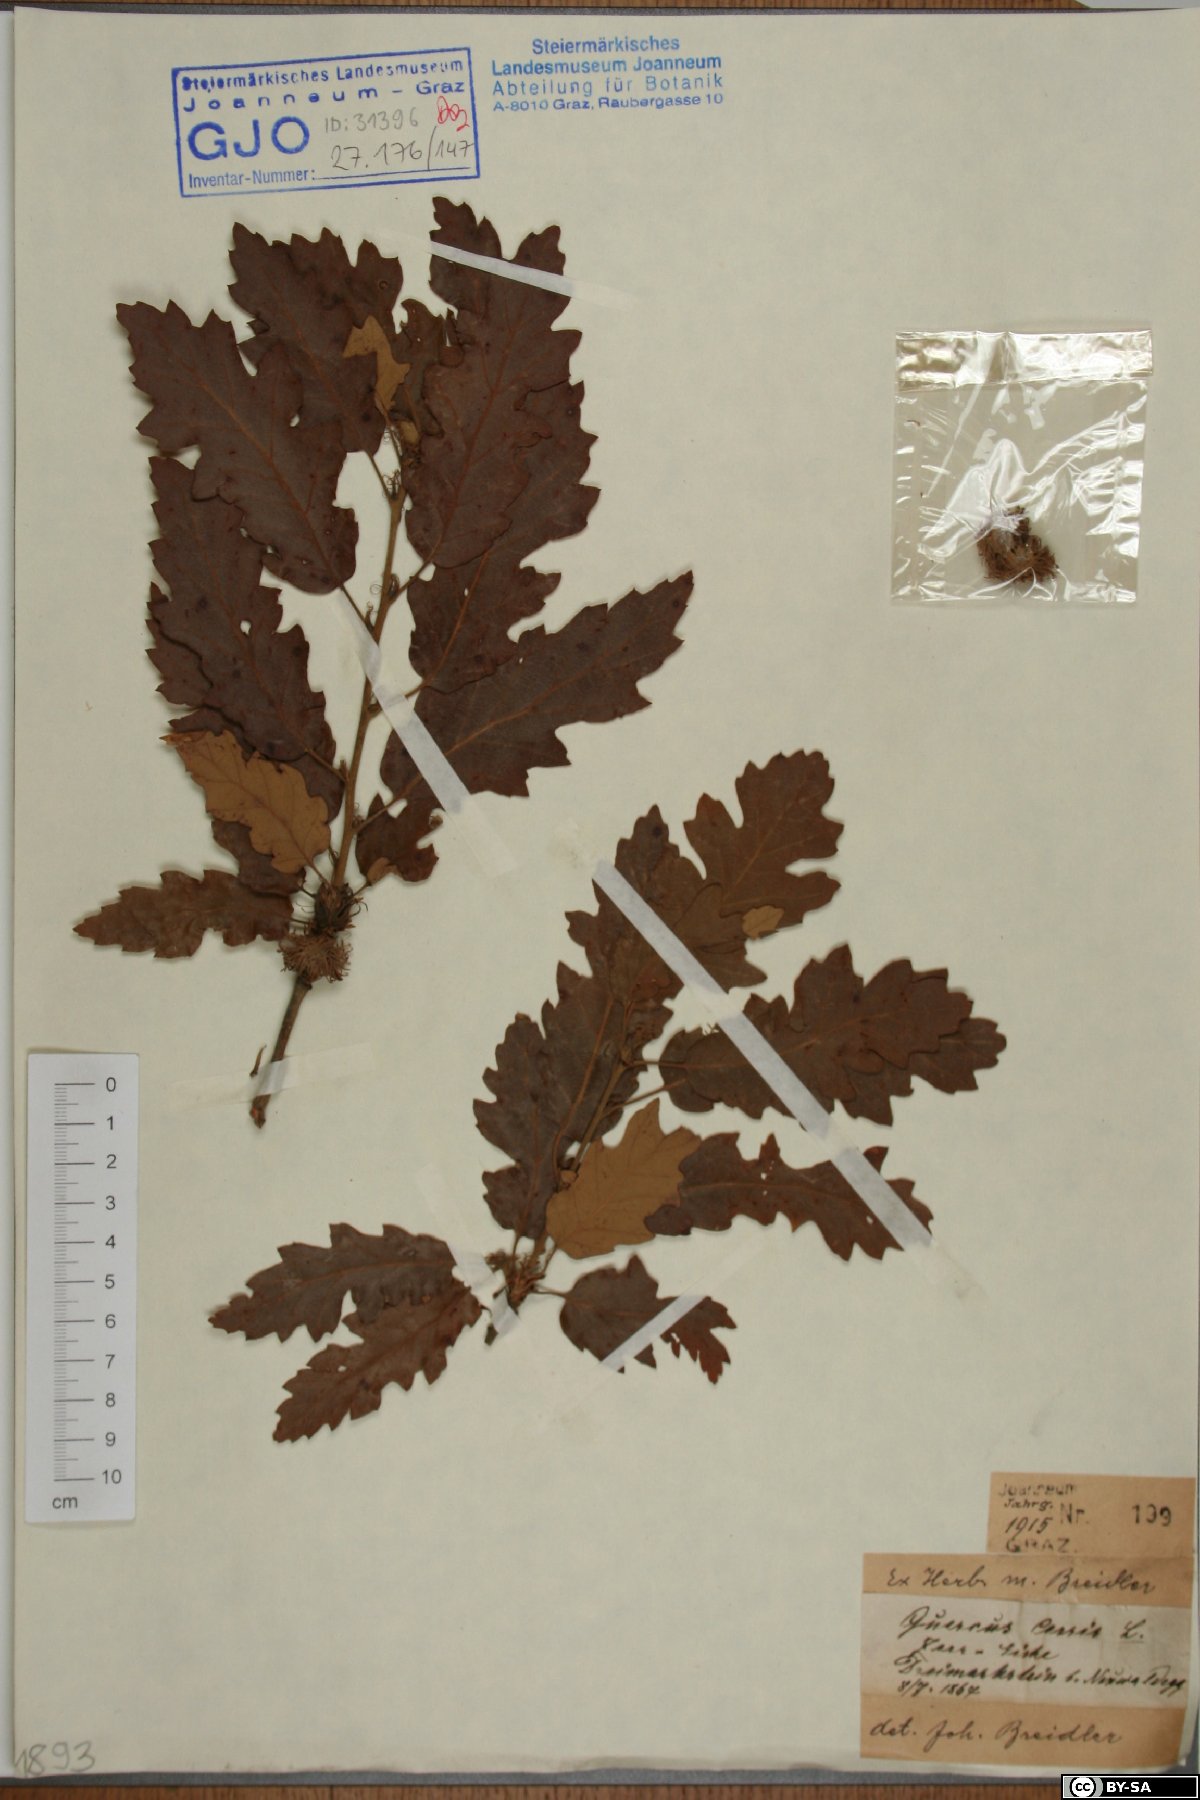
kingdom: Plantae
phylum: Tracheophyta
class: Magnoliopsida
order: Fagales
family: Fagaceae
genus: Quercus
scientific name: Quercus cerris
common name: Turkey oak
